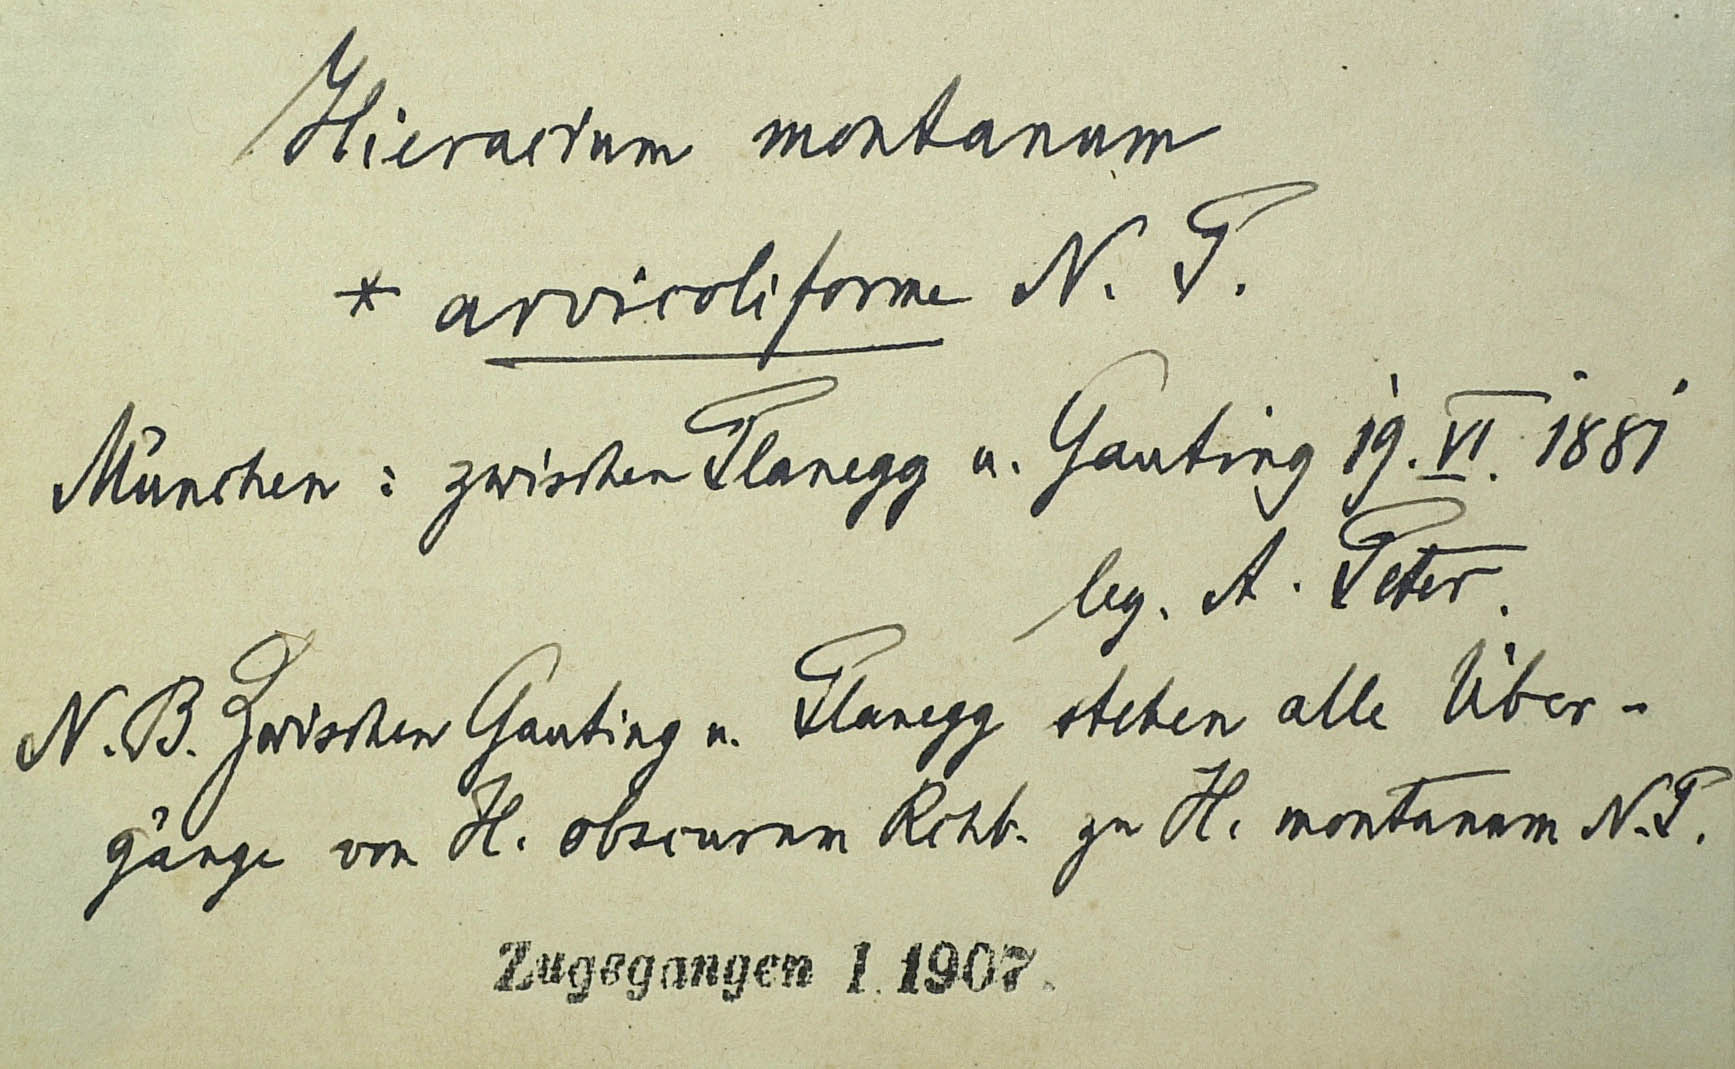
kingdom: Plantae
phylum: Tracheophyta
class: Magnoliopsida
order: Asterales
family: Asteraceae
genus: Pilosella
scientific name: Pilosella chomatophila
